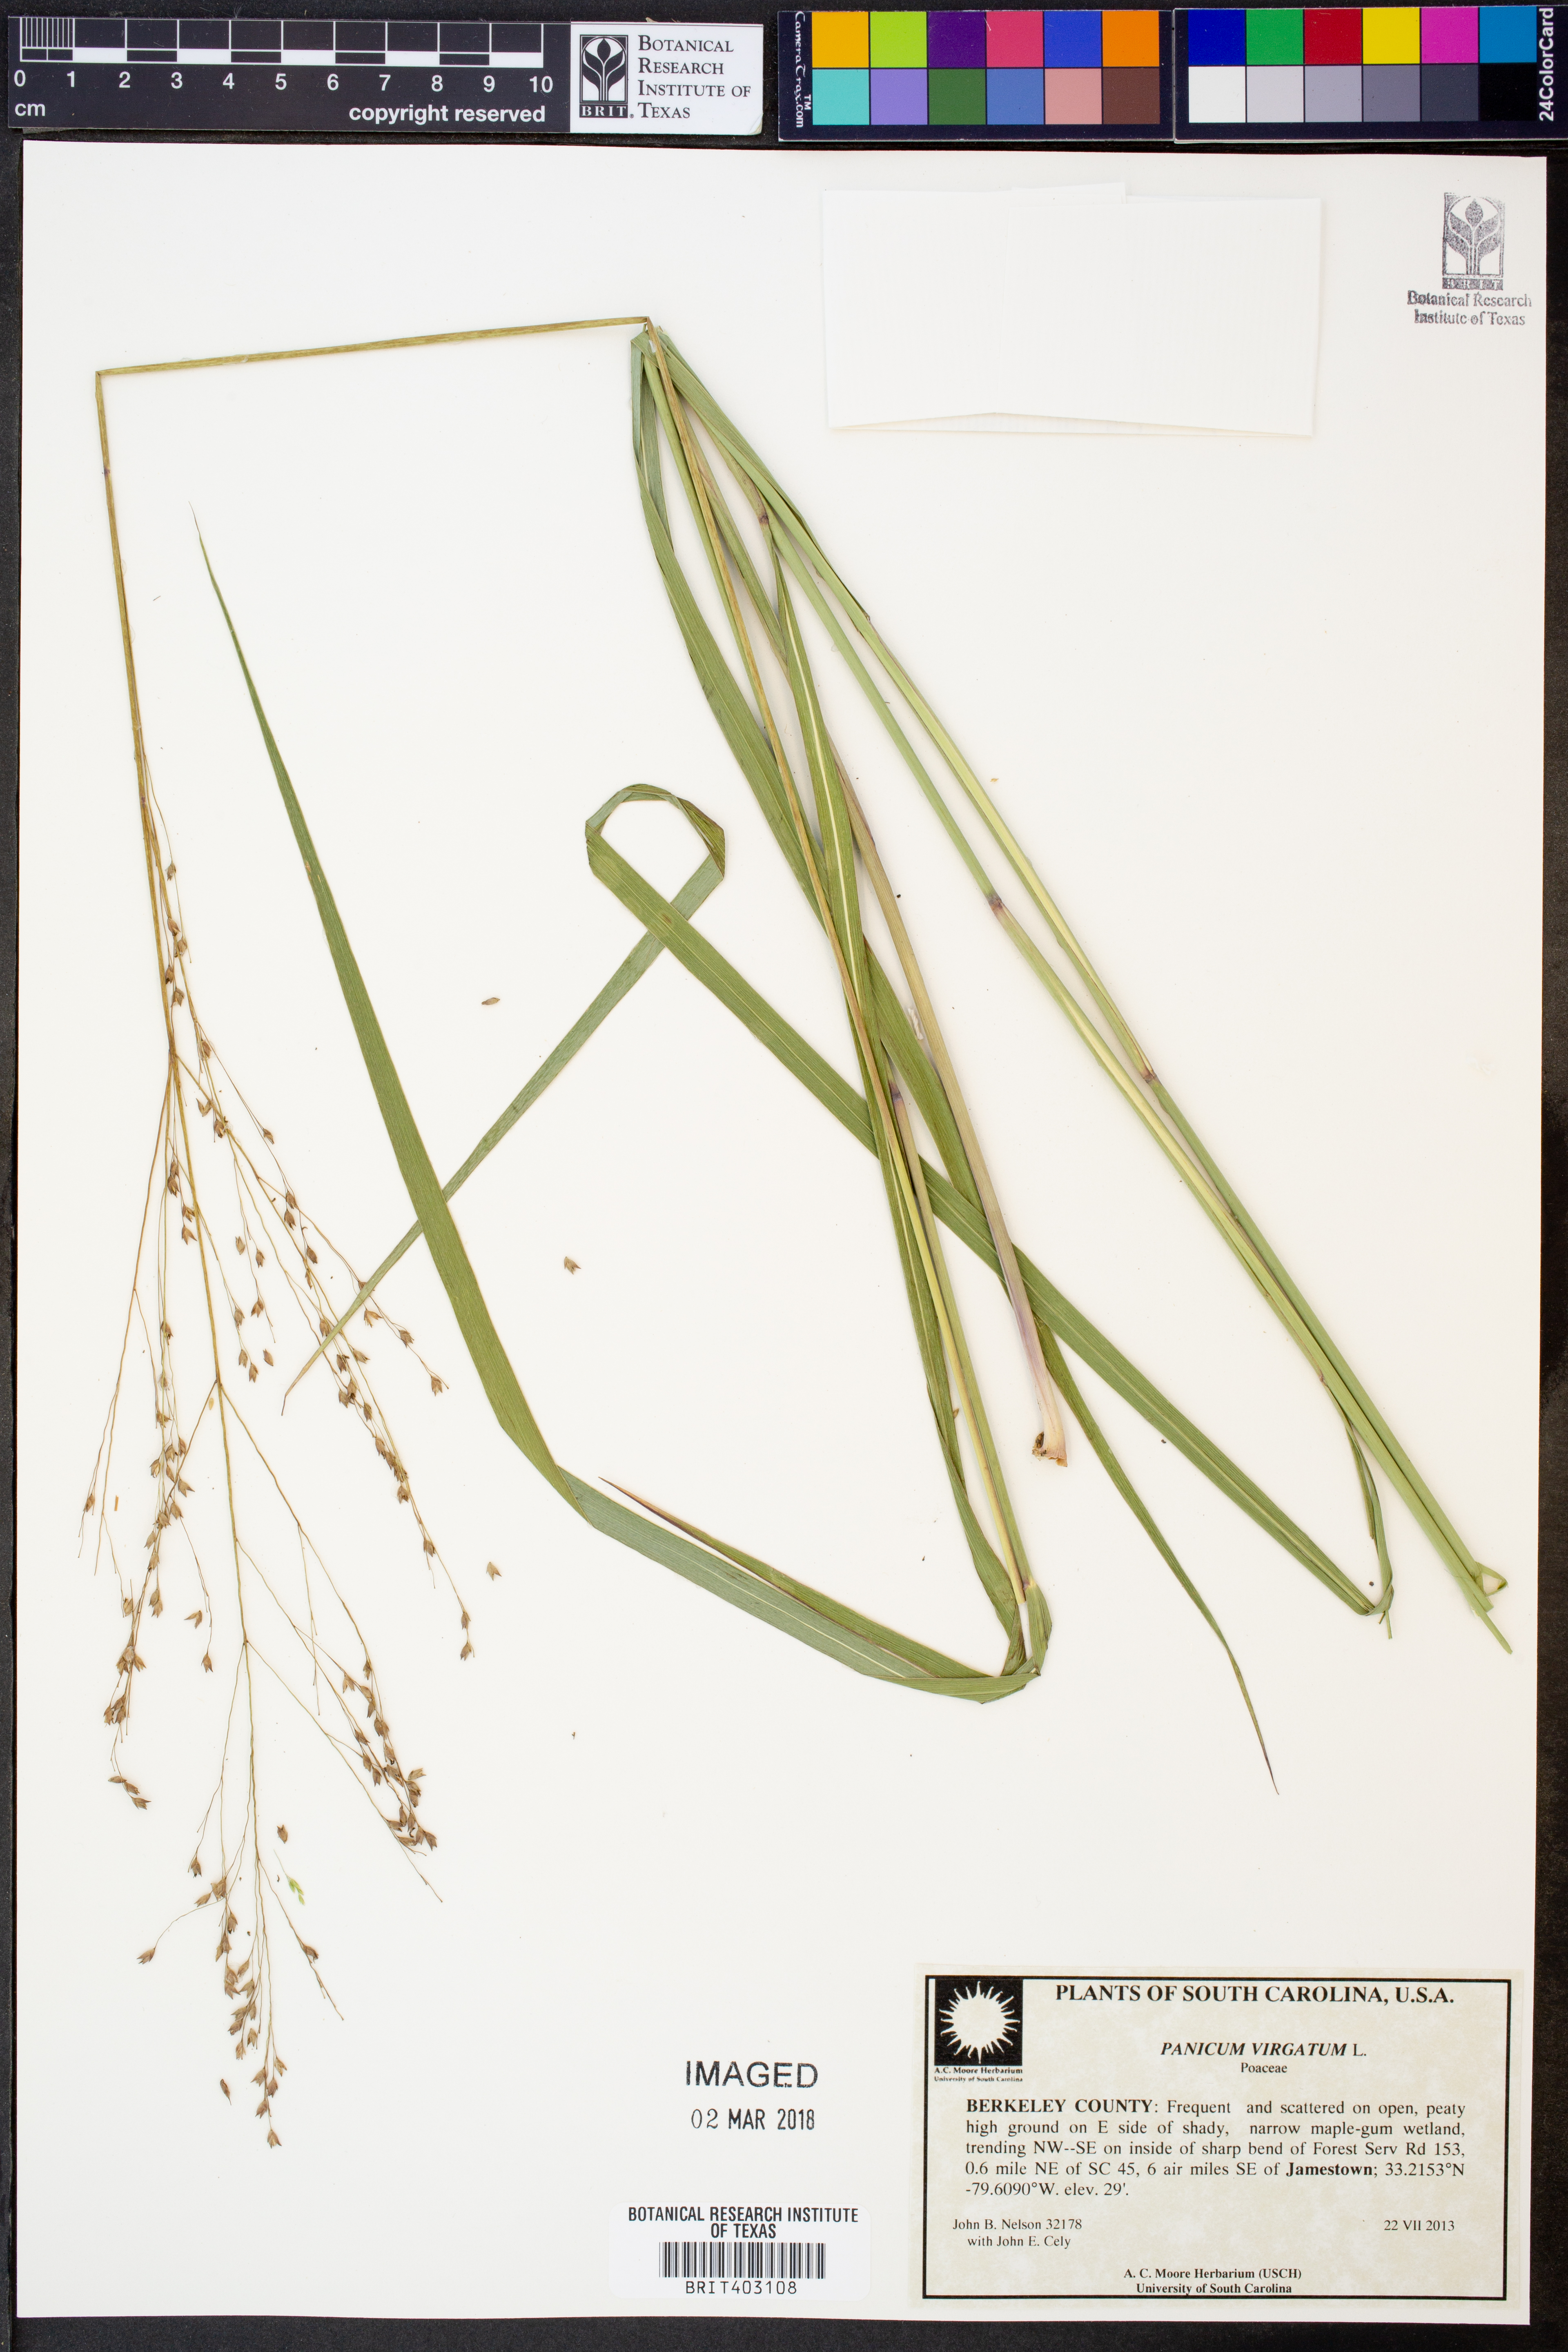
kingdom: Plantae
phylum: Tracheophyta
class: Liliopsida
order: Poales
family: Poaceae
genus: Panicum
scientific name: Panicum virgatum
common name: Switchgrass
